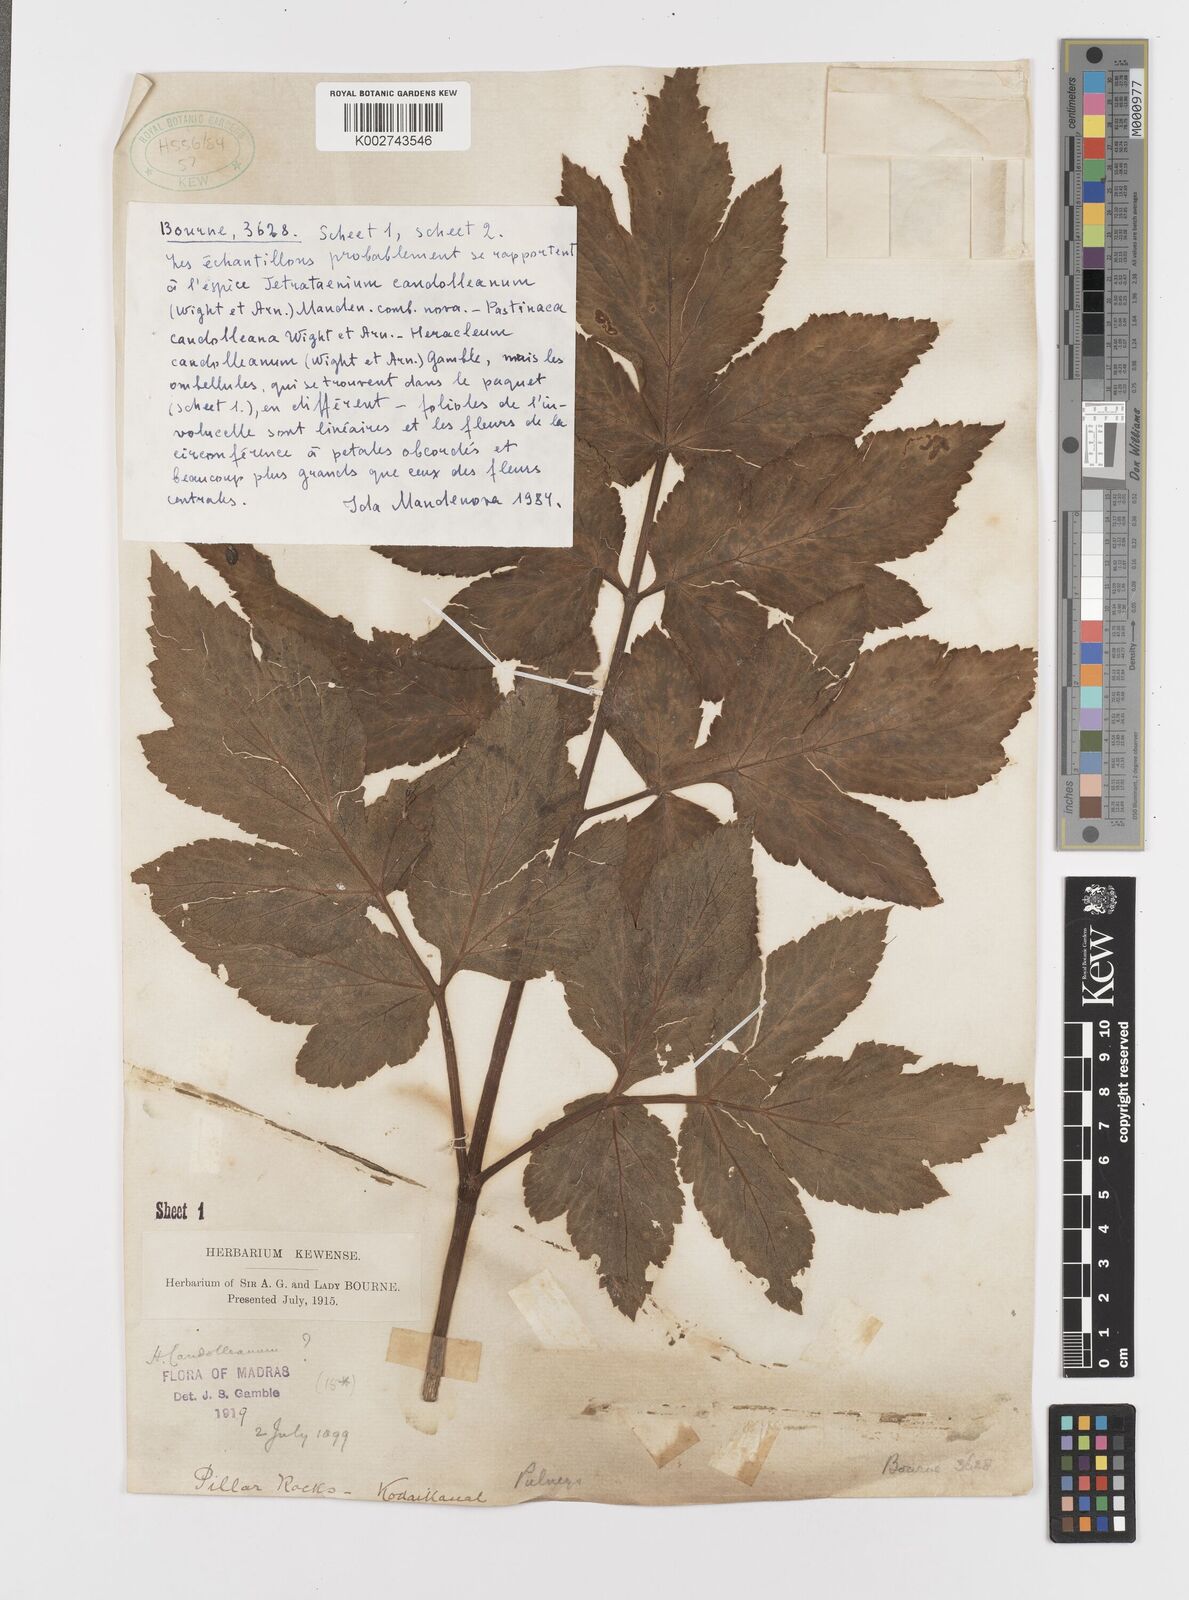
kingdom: Plantae
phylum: Tracheophyta
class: Magnoliopsida
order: Apiales
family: Apiaceae
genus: Tetrataenium
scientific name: Tetrataenium rigens
